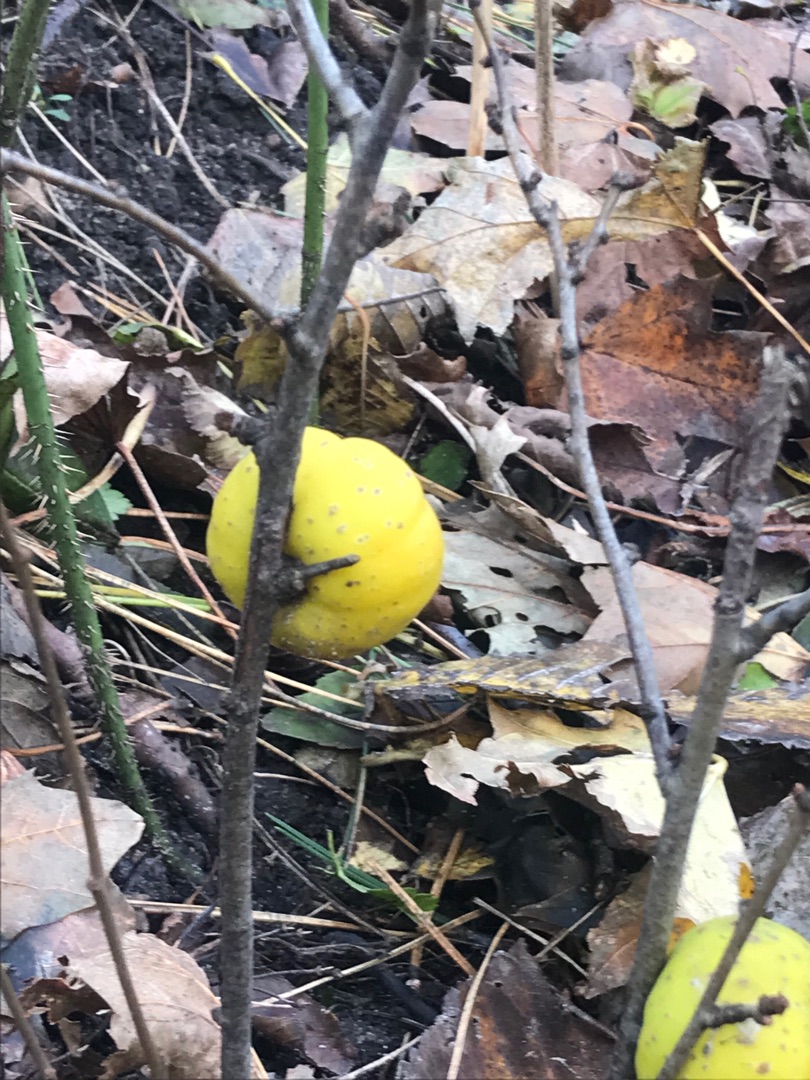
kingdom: Plantae
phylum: Tracheophyta
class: Magnoliopsida
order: Rosales
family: Rosaceae
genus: Chaenomeles
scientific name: Chaenomeles japonica
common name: Lille japankvæde
